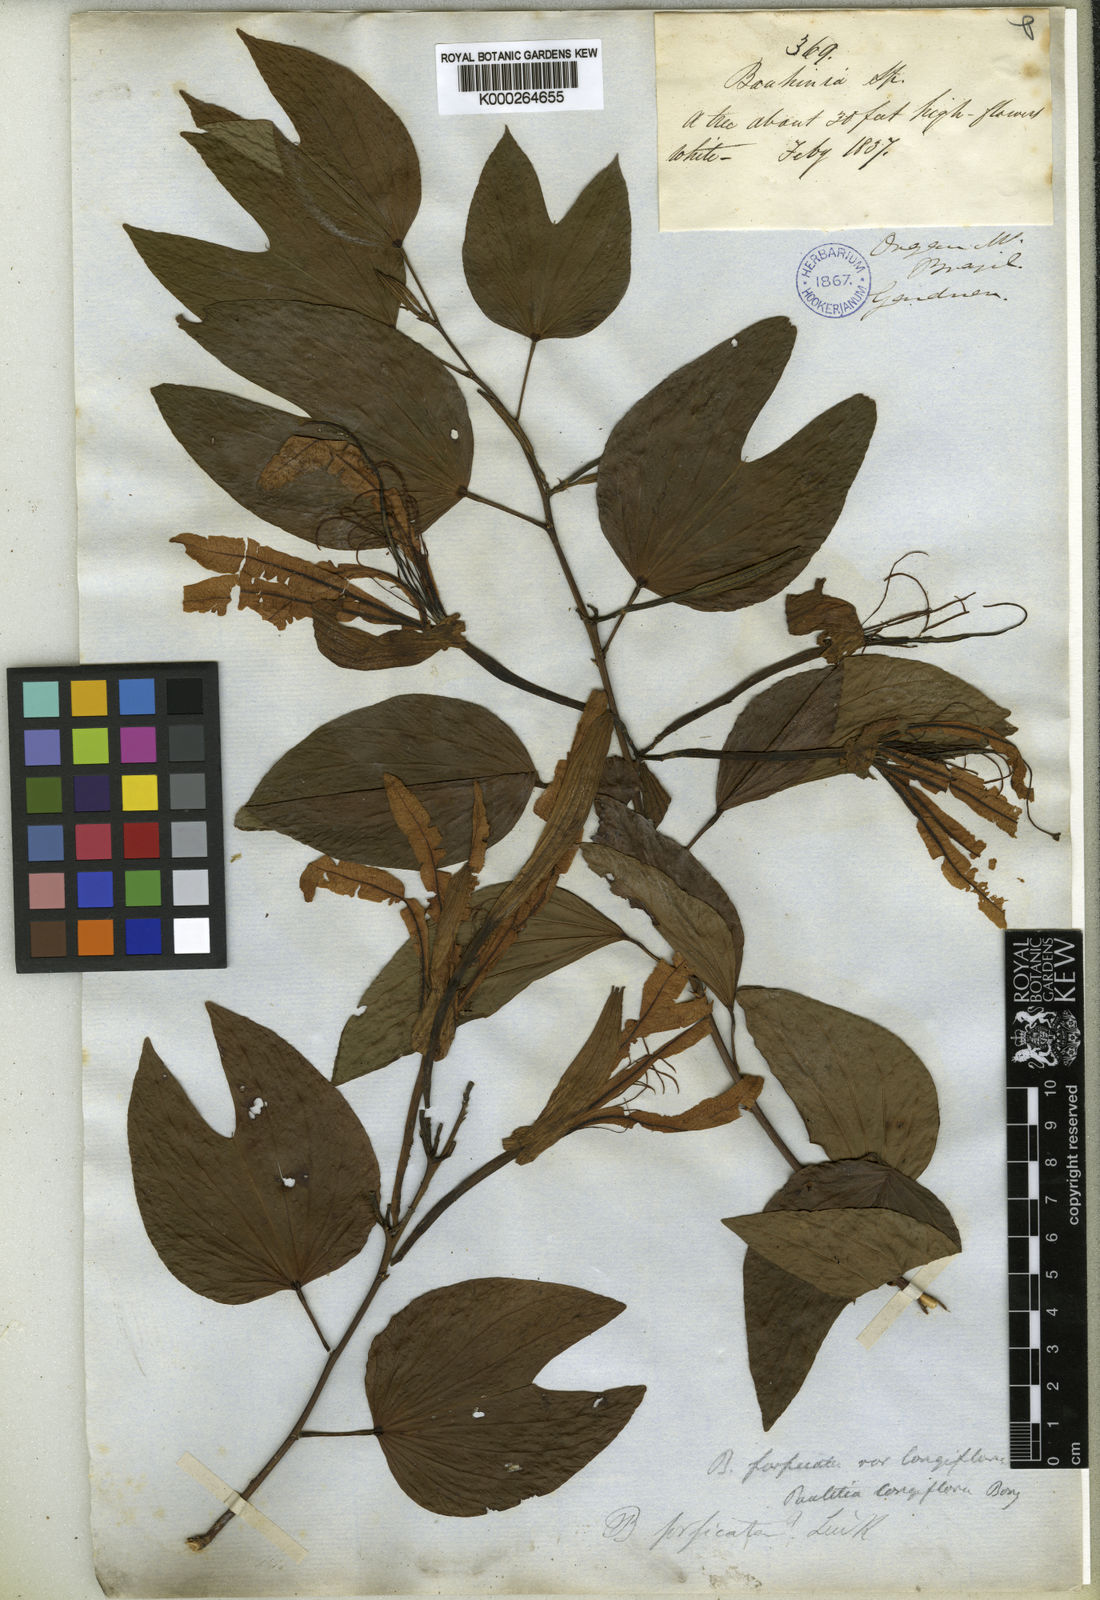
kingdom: Plantae
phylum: Tracheophyta
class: Magnoliopsida
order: Fabales
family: Fabaceae
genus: Bauhinia
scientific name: Bauhinia forficata
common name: Orchid tree
